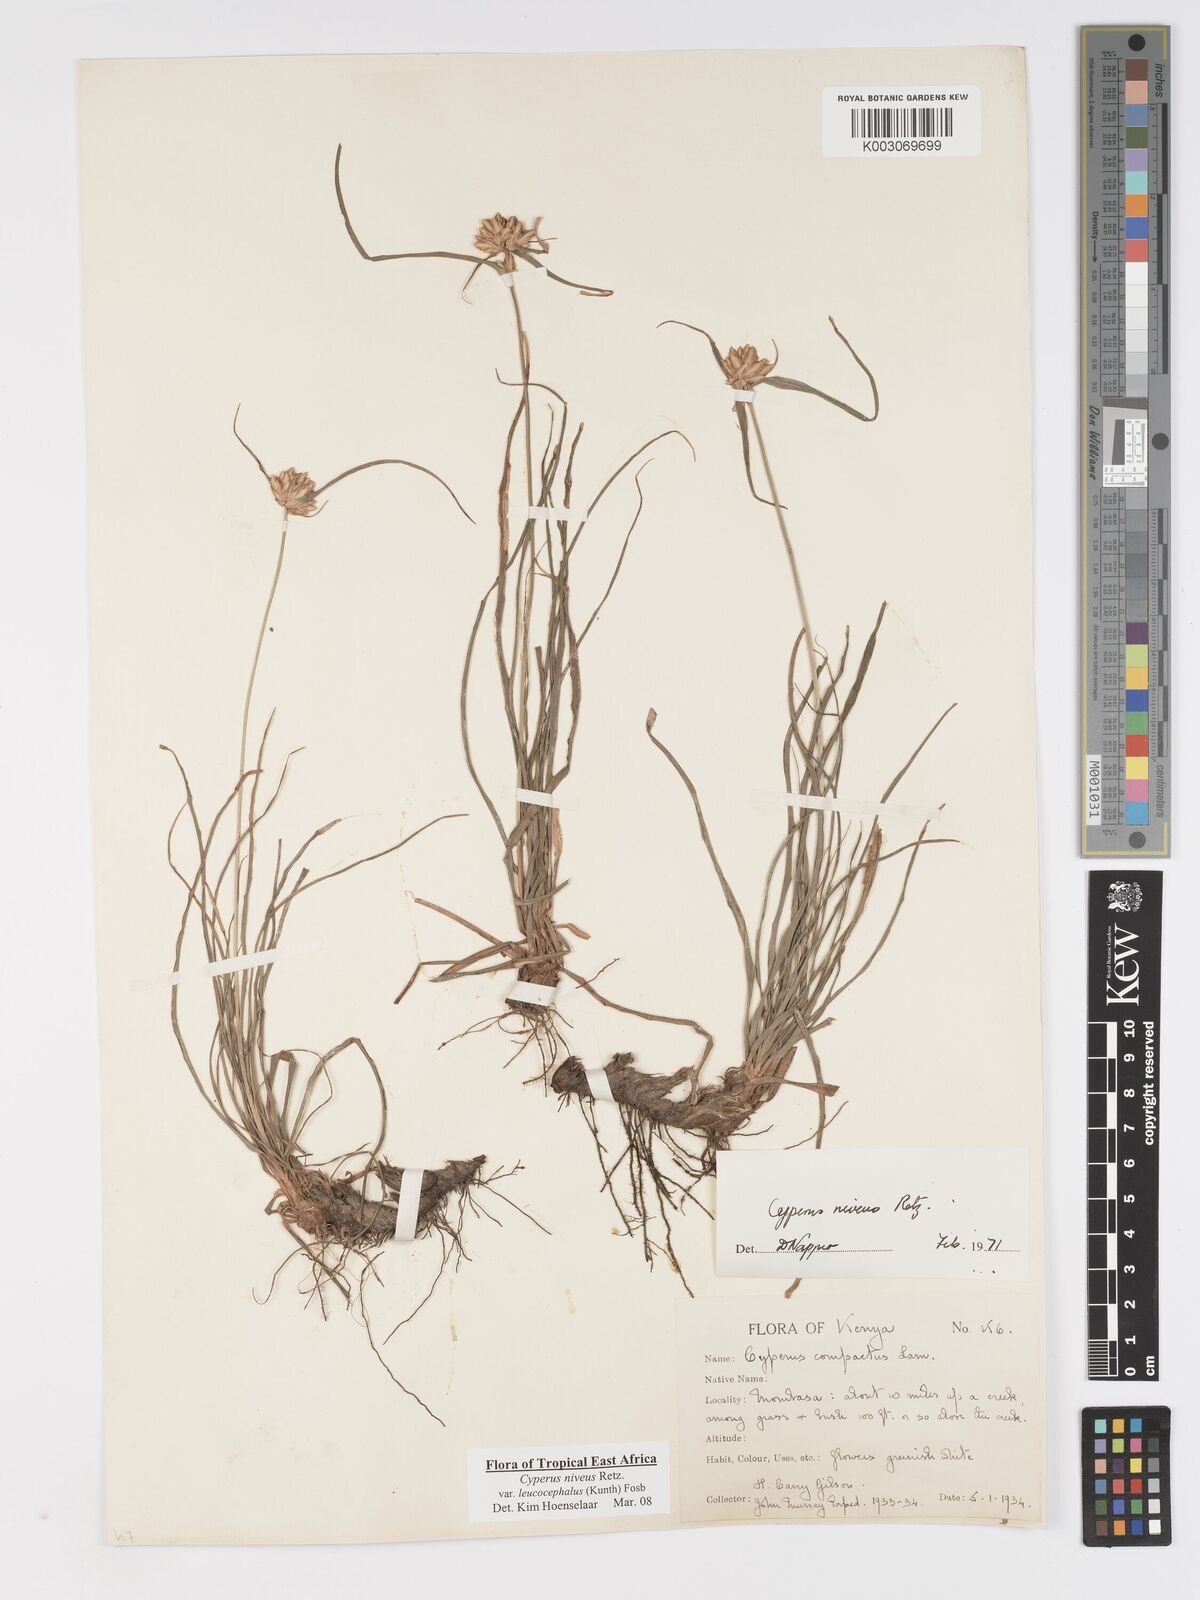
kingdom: Plantae
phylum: Tracheophyta
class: Liliopsida
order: Poales
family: Cyperaceae
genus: Cyperus
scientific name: Cyperus niveus
